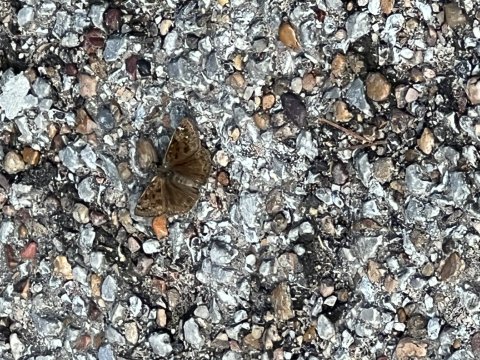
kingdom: Animalia
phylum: Arthropoda
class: Insecta
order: Lepidoptera
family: Hesperiidae
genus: Gesta
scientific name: Gesta
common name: Horace's Duskywing
